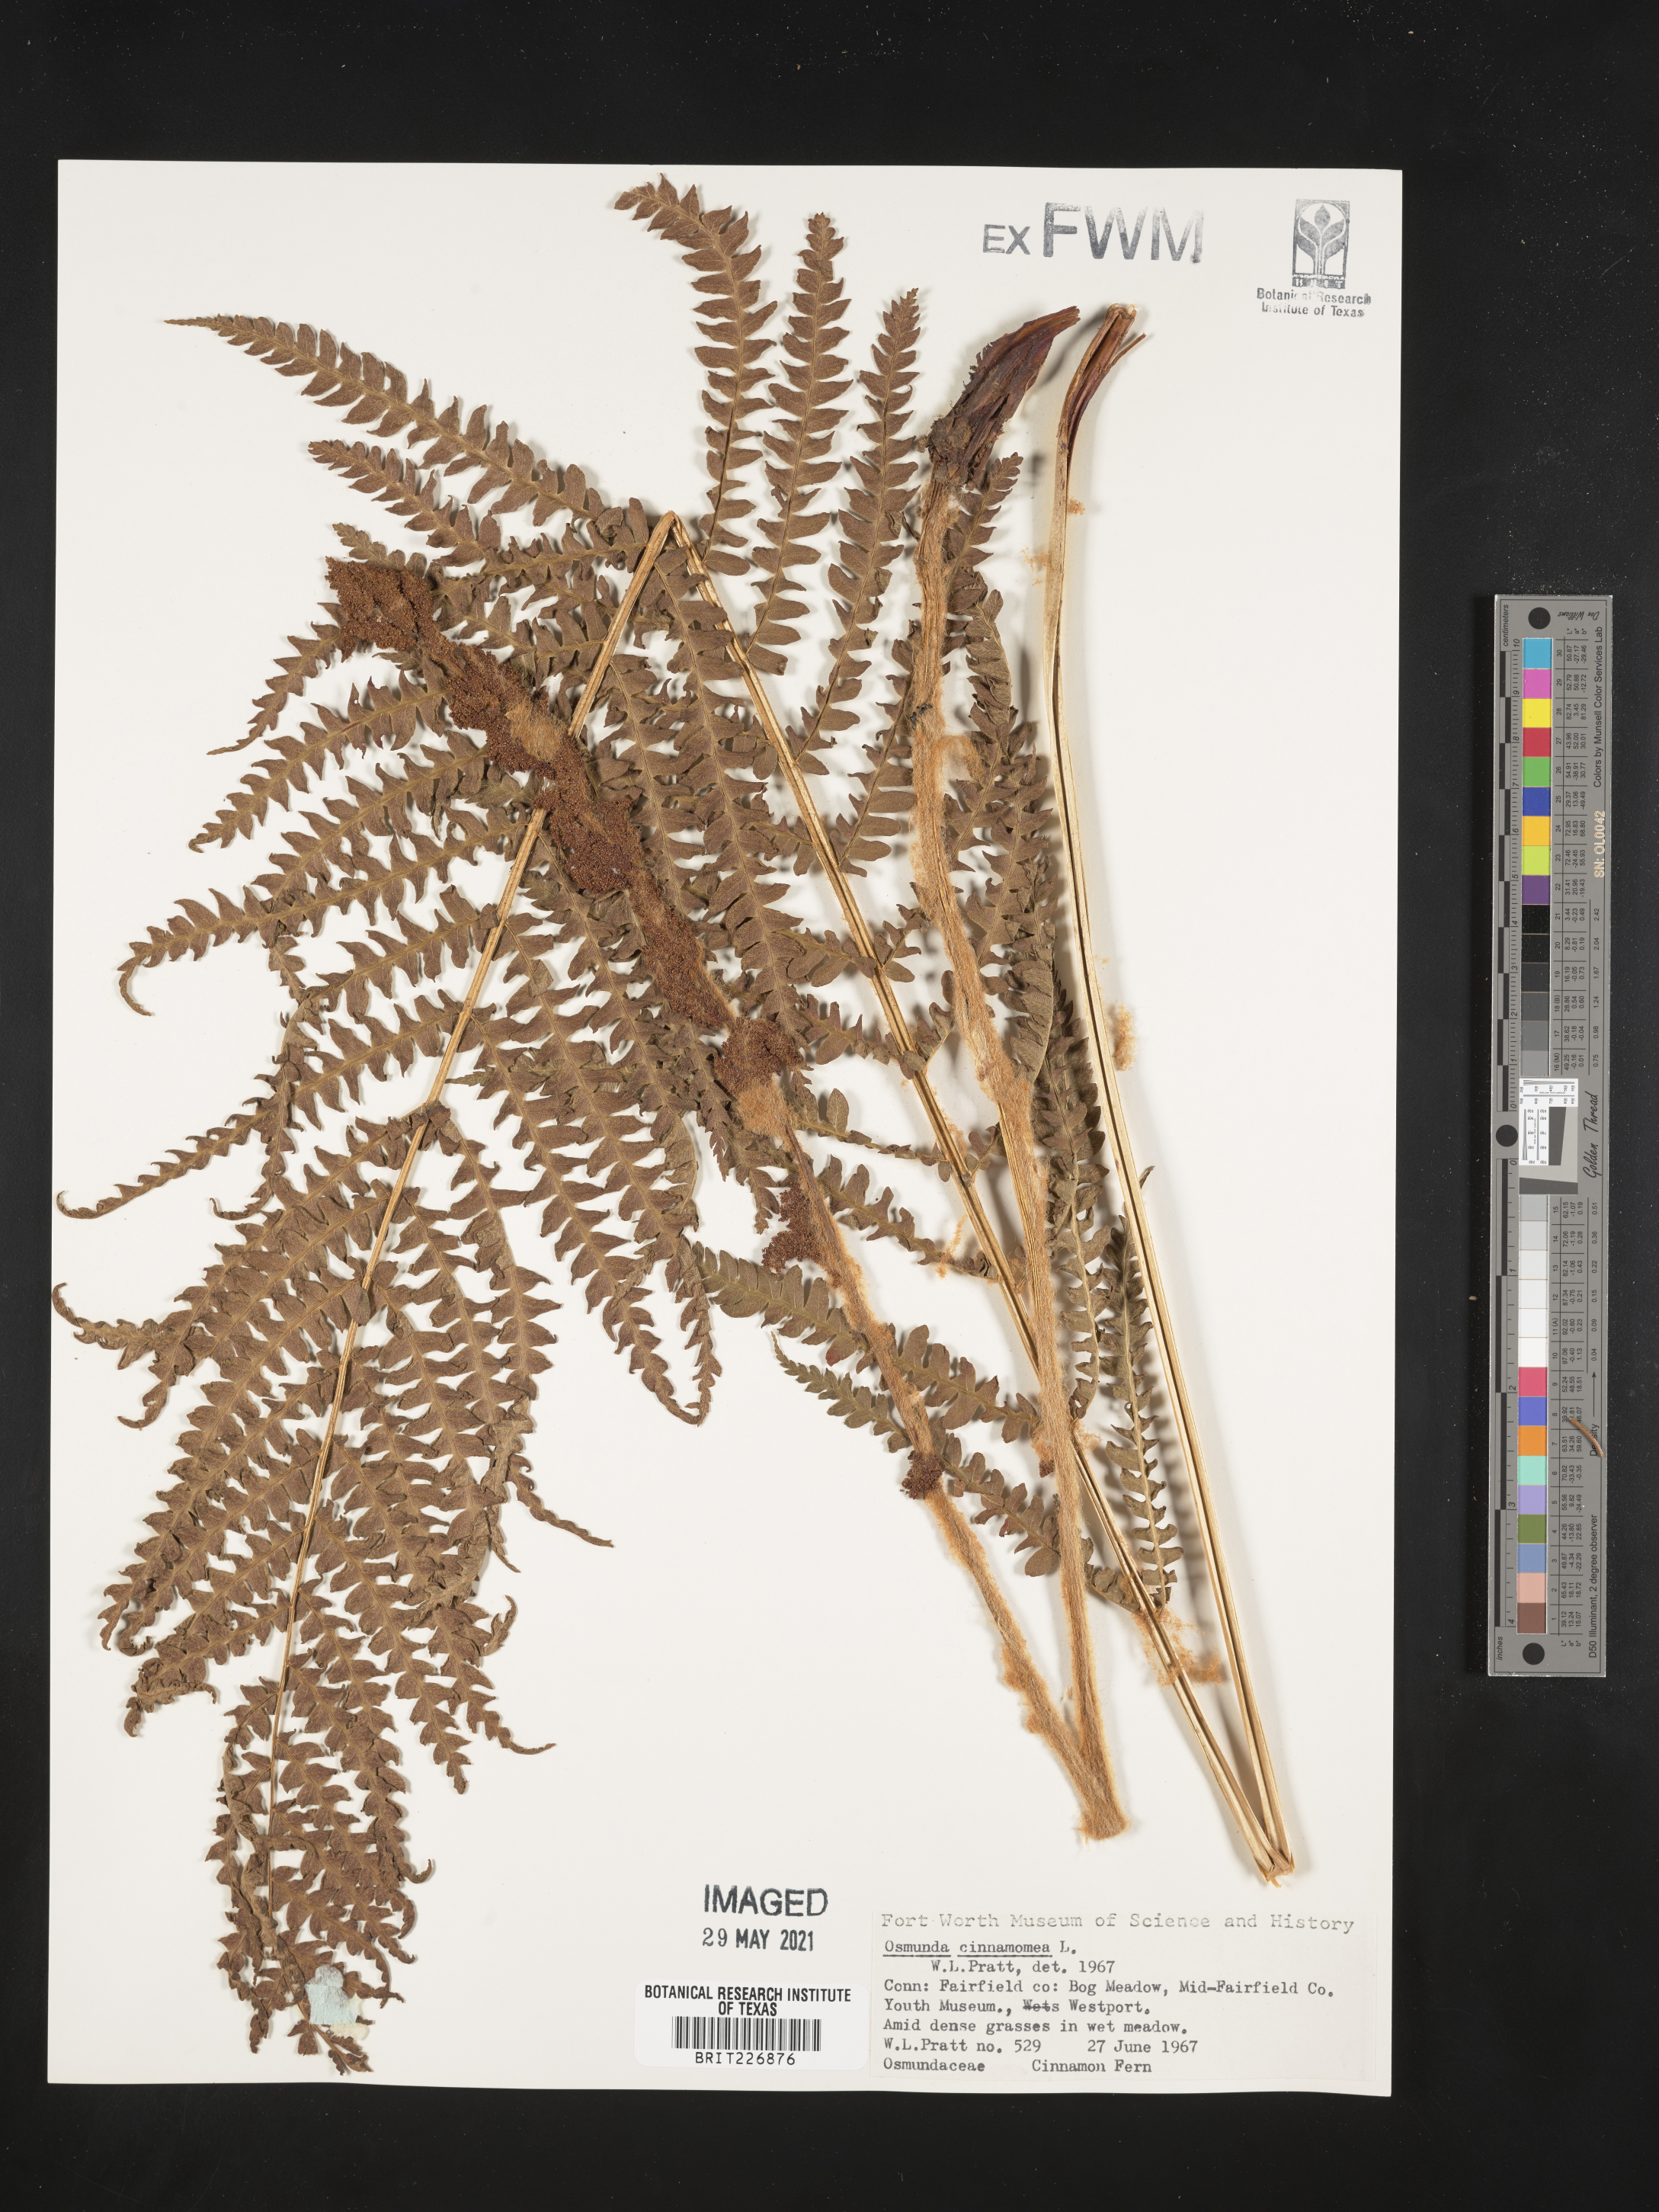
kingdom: Plantae
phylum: Tracheophyta
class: Polypodiopsida
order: Osmundales
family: Osmundaceae
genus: Osmundastrum
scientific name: Osmundastrum cinnamomeum
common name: Cinnamon fern
